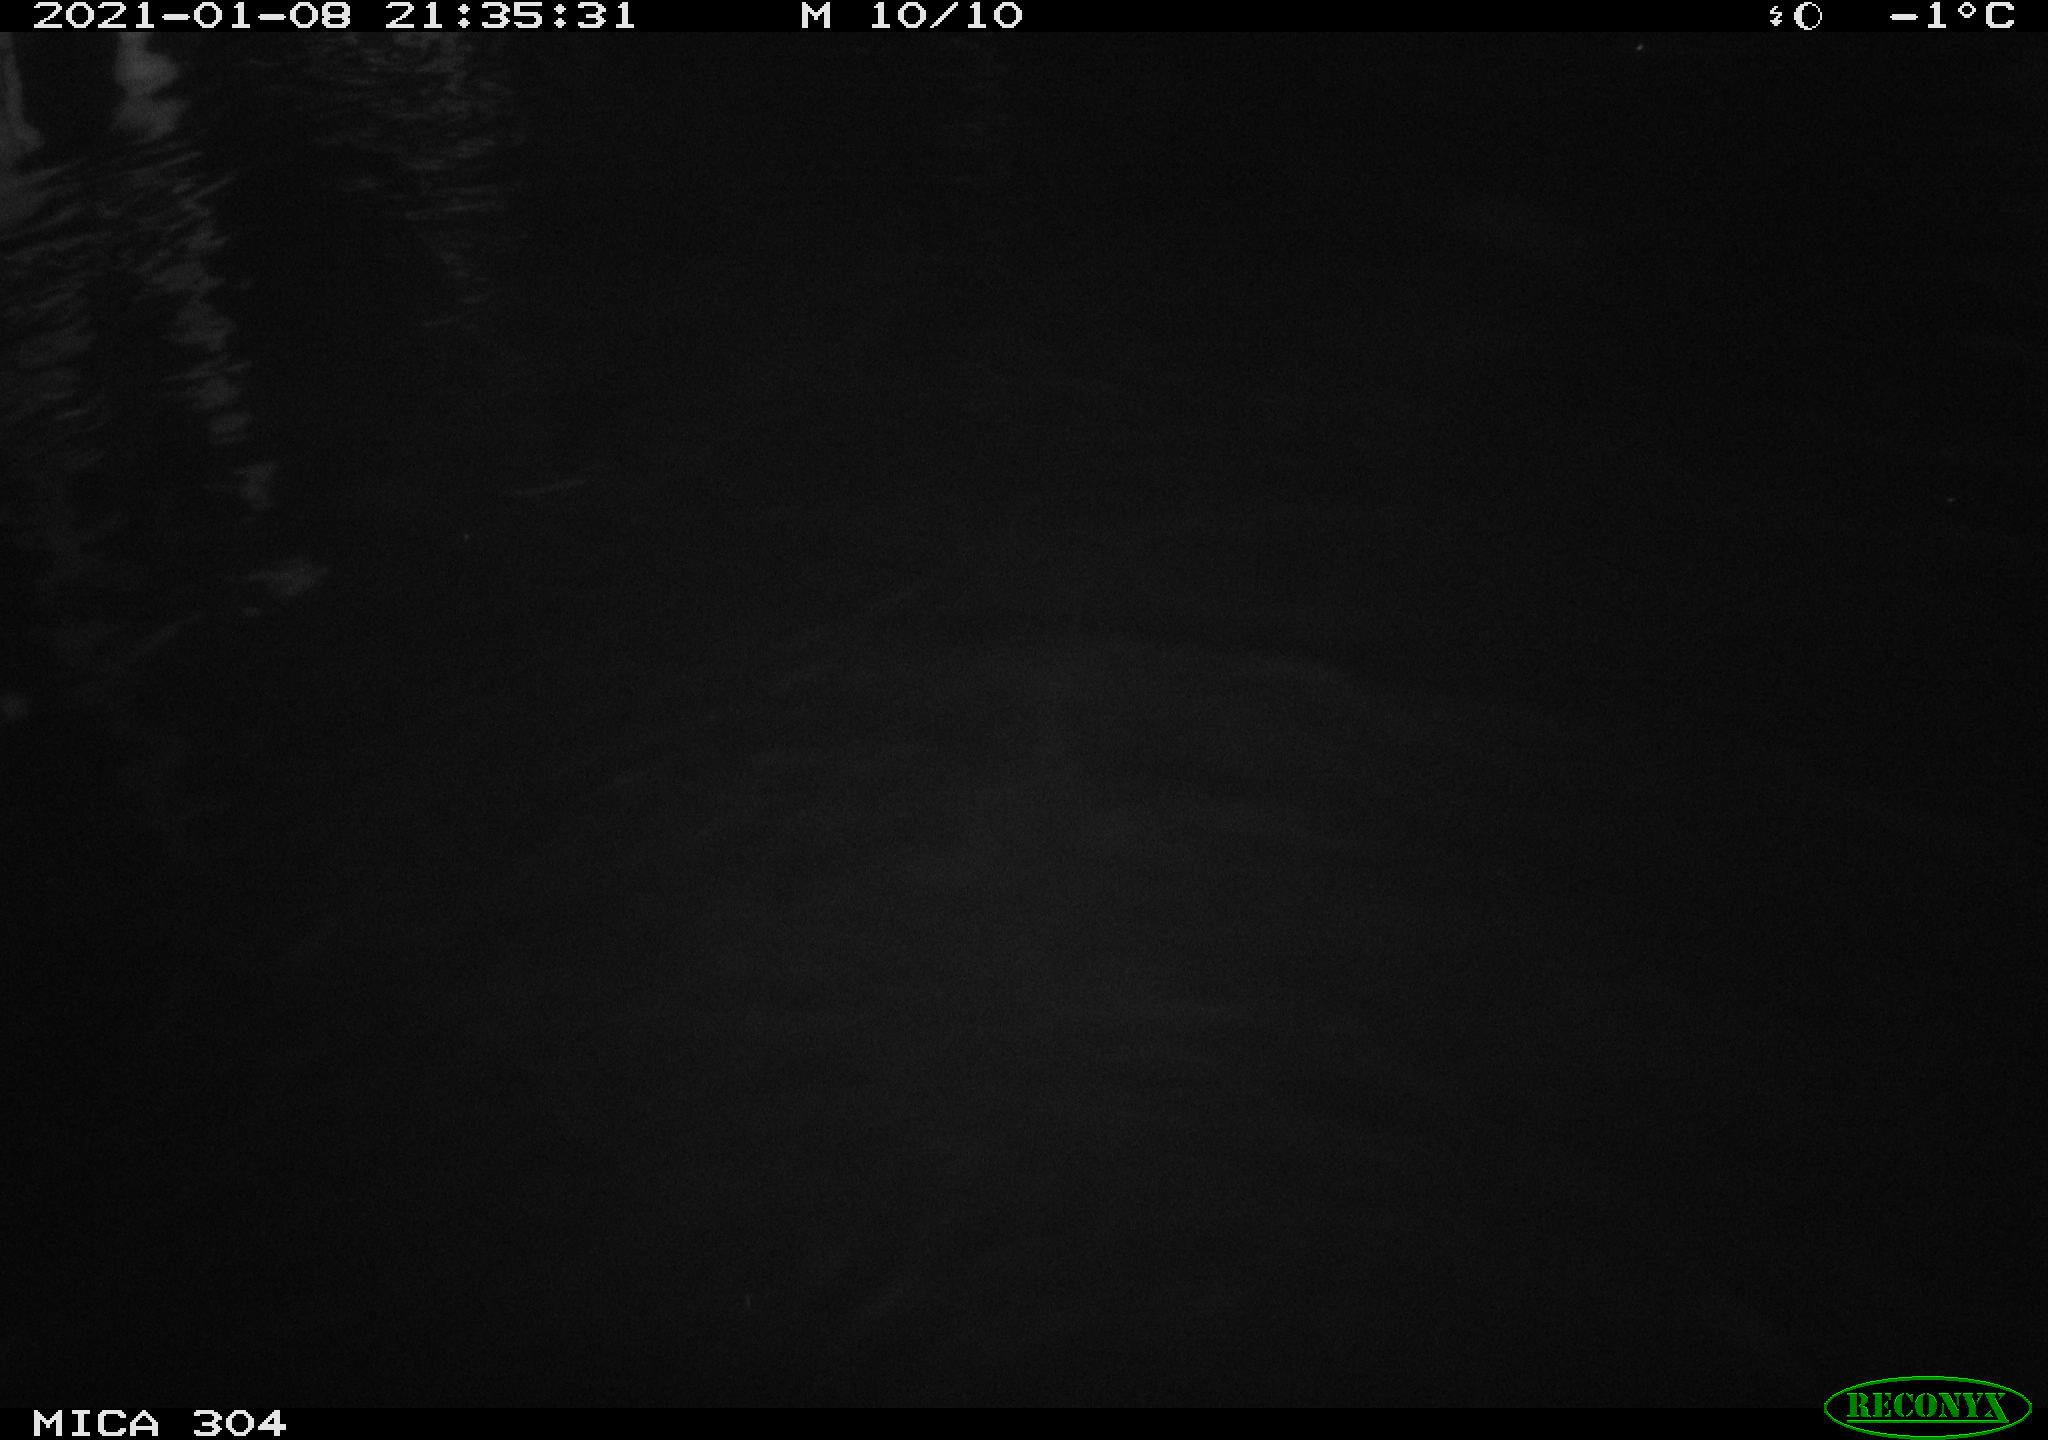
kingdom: Animalia
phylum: Chordata
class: Mammalia
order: Rodentia
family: Muridae
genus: Rattus
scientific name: Rattus norvegicus
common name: Brown rat
